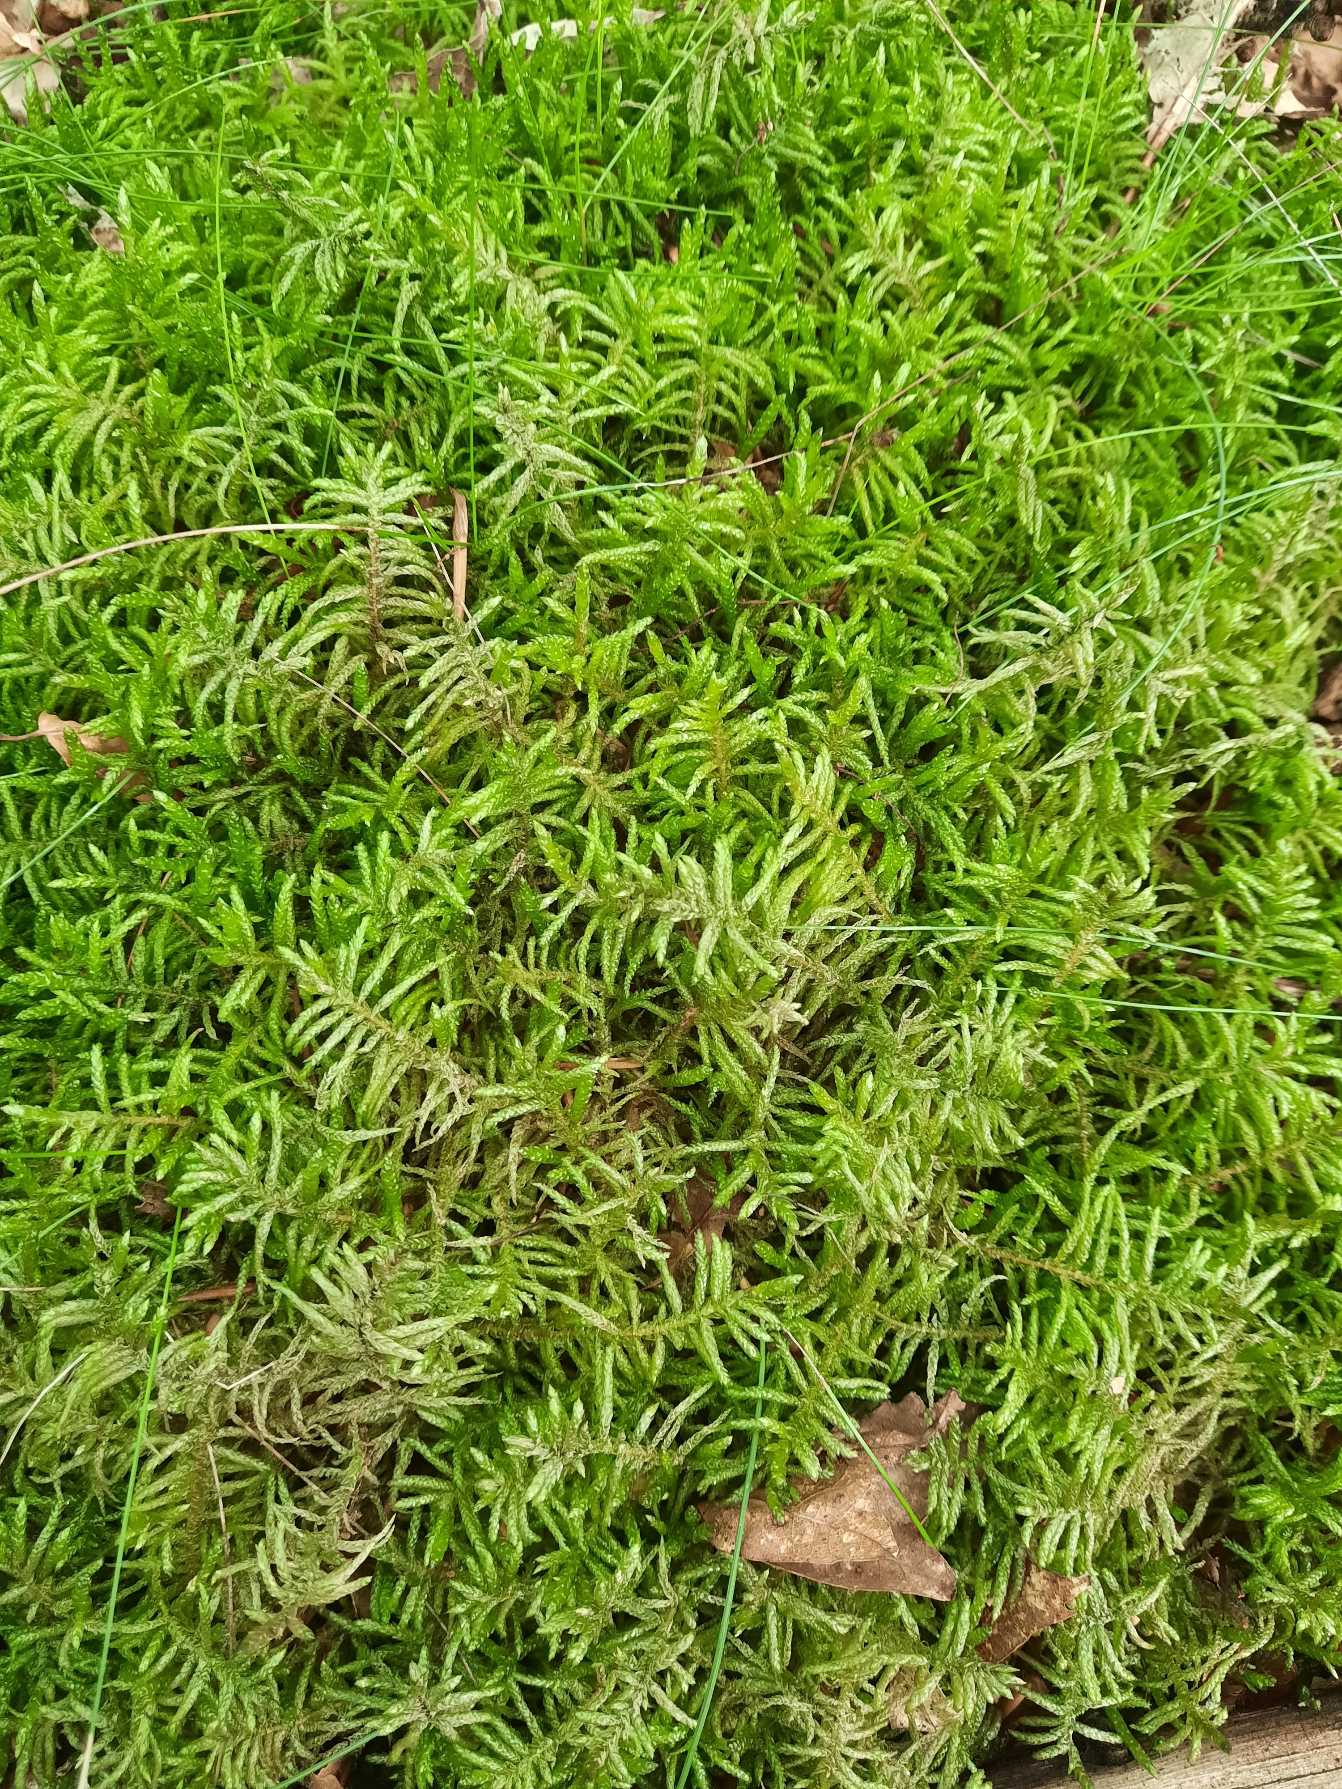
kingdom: Plantae
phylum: Bryophyta
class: Bryopsida
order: Hypnales
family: Brachytheciaceae
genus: Pseudoscleropodium
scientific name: Pseudoscleropodium purum
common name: Hulbladet fedtmos
